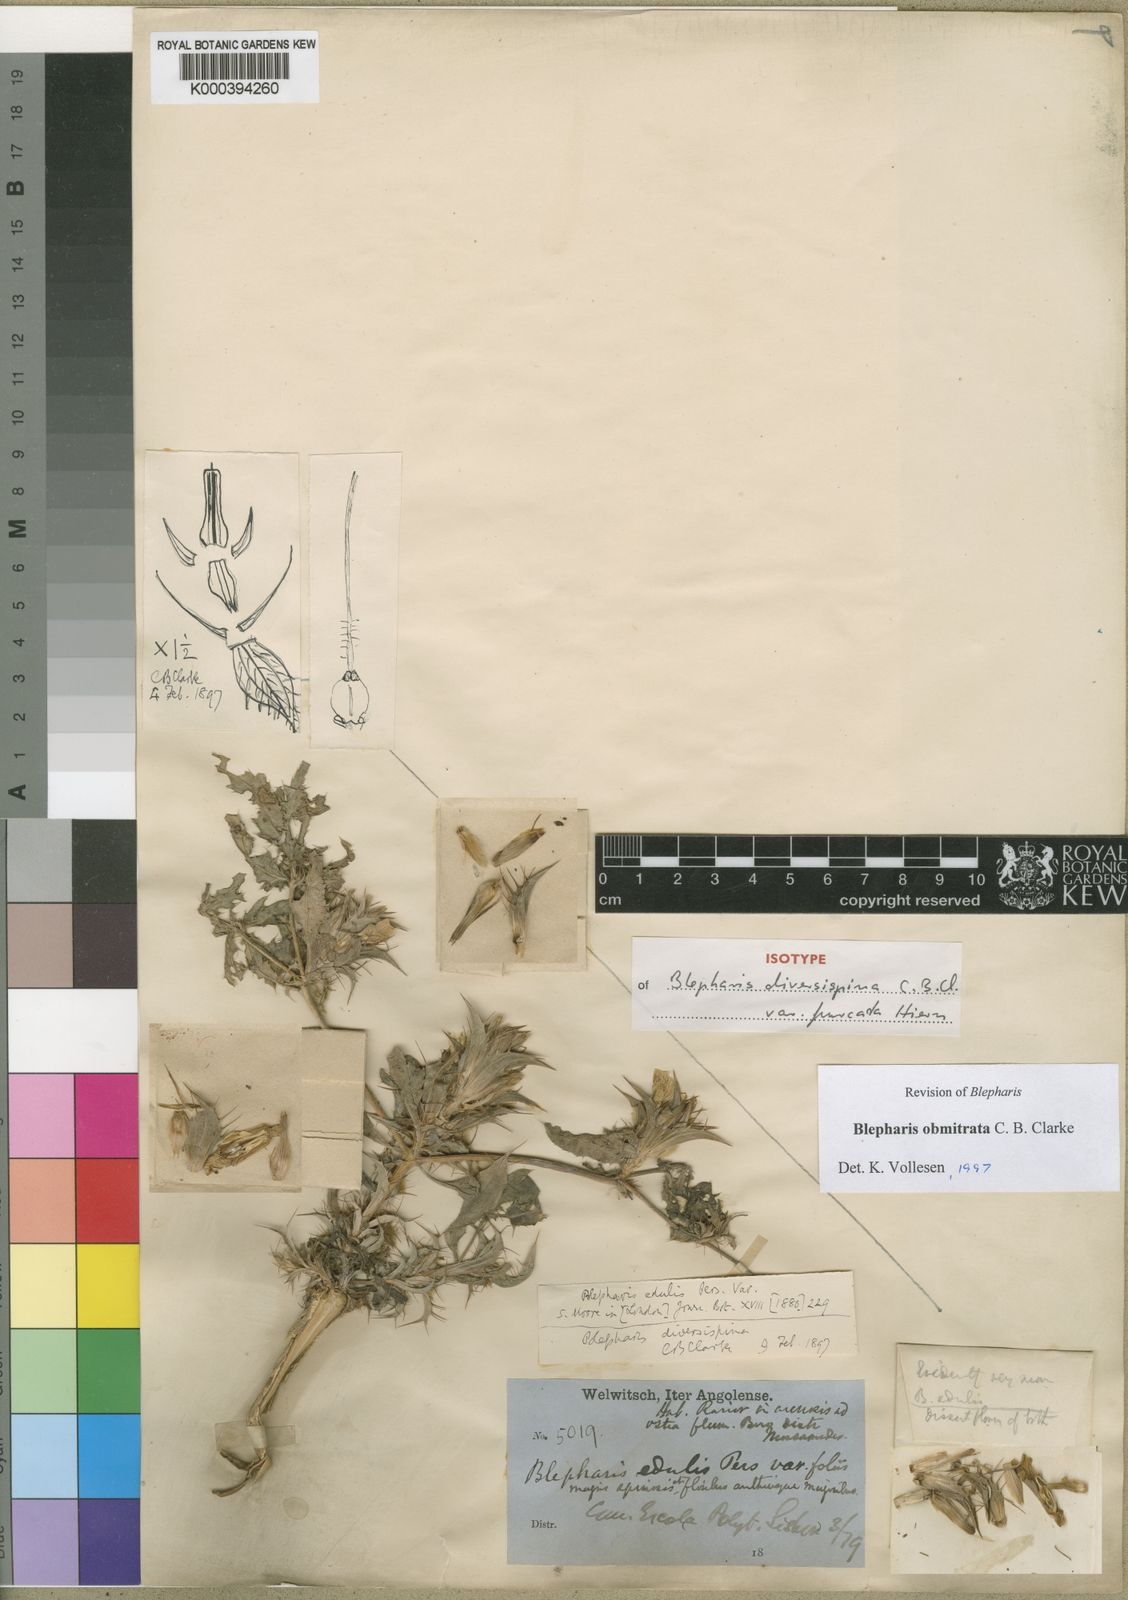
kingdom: Plantae
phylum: Tracheophyta
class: Magnoliopsida
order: Lamiales
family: Acanthaceae
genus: Blepharis
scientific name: Blepharis obmitrata
